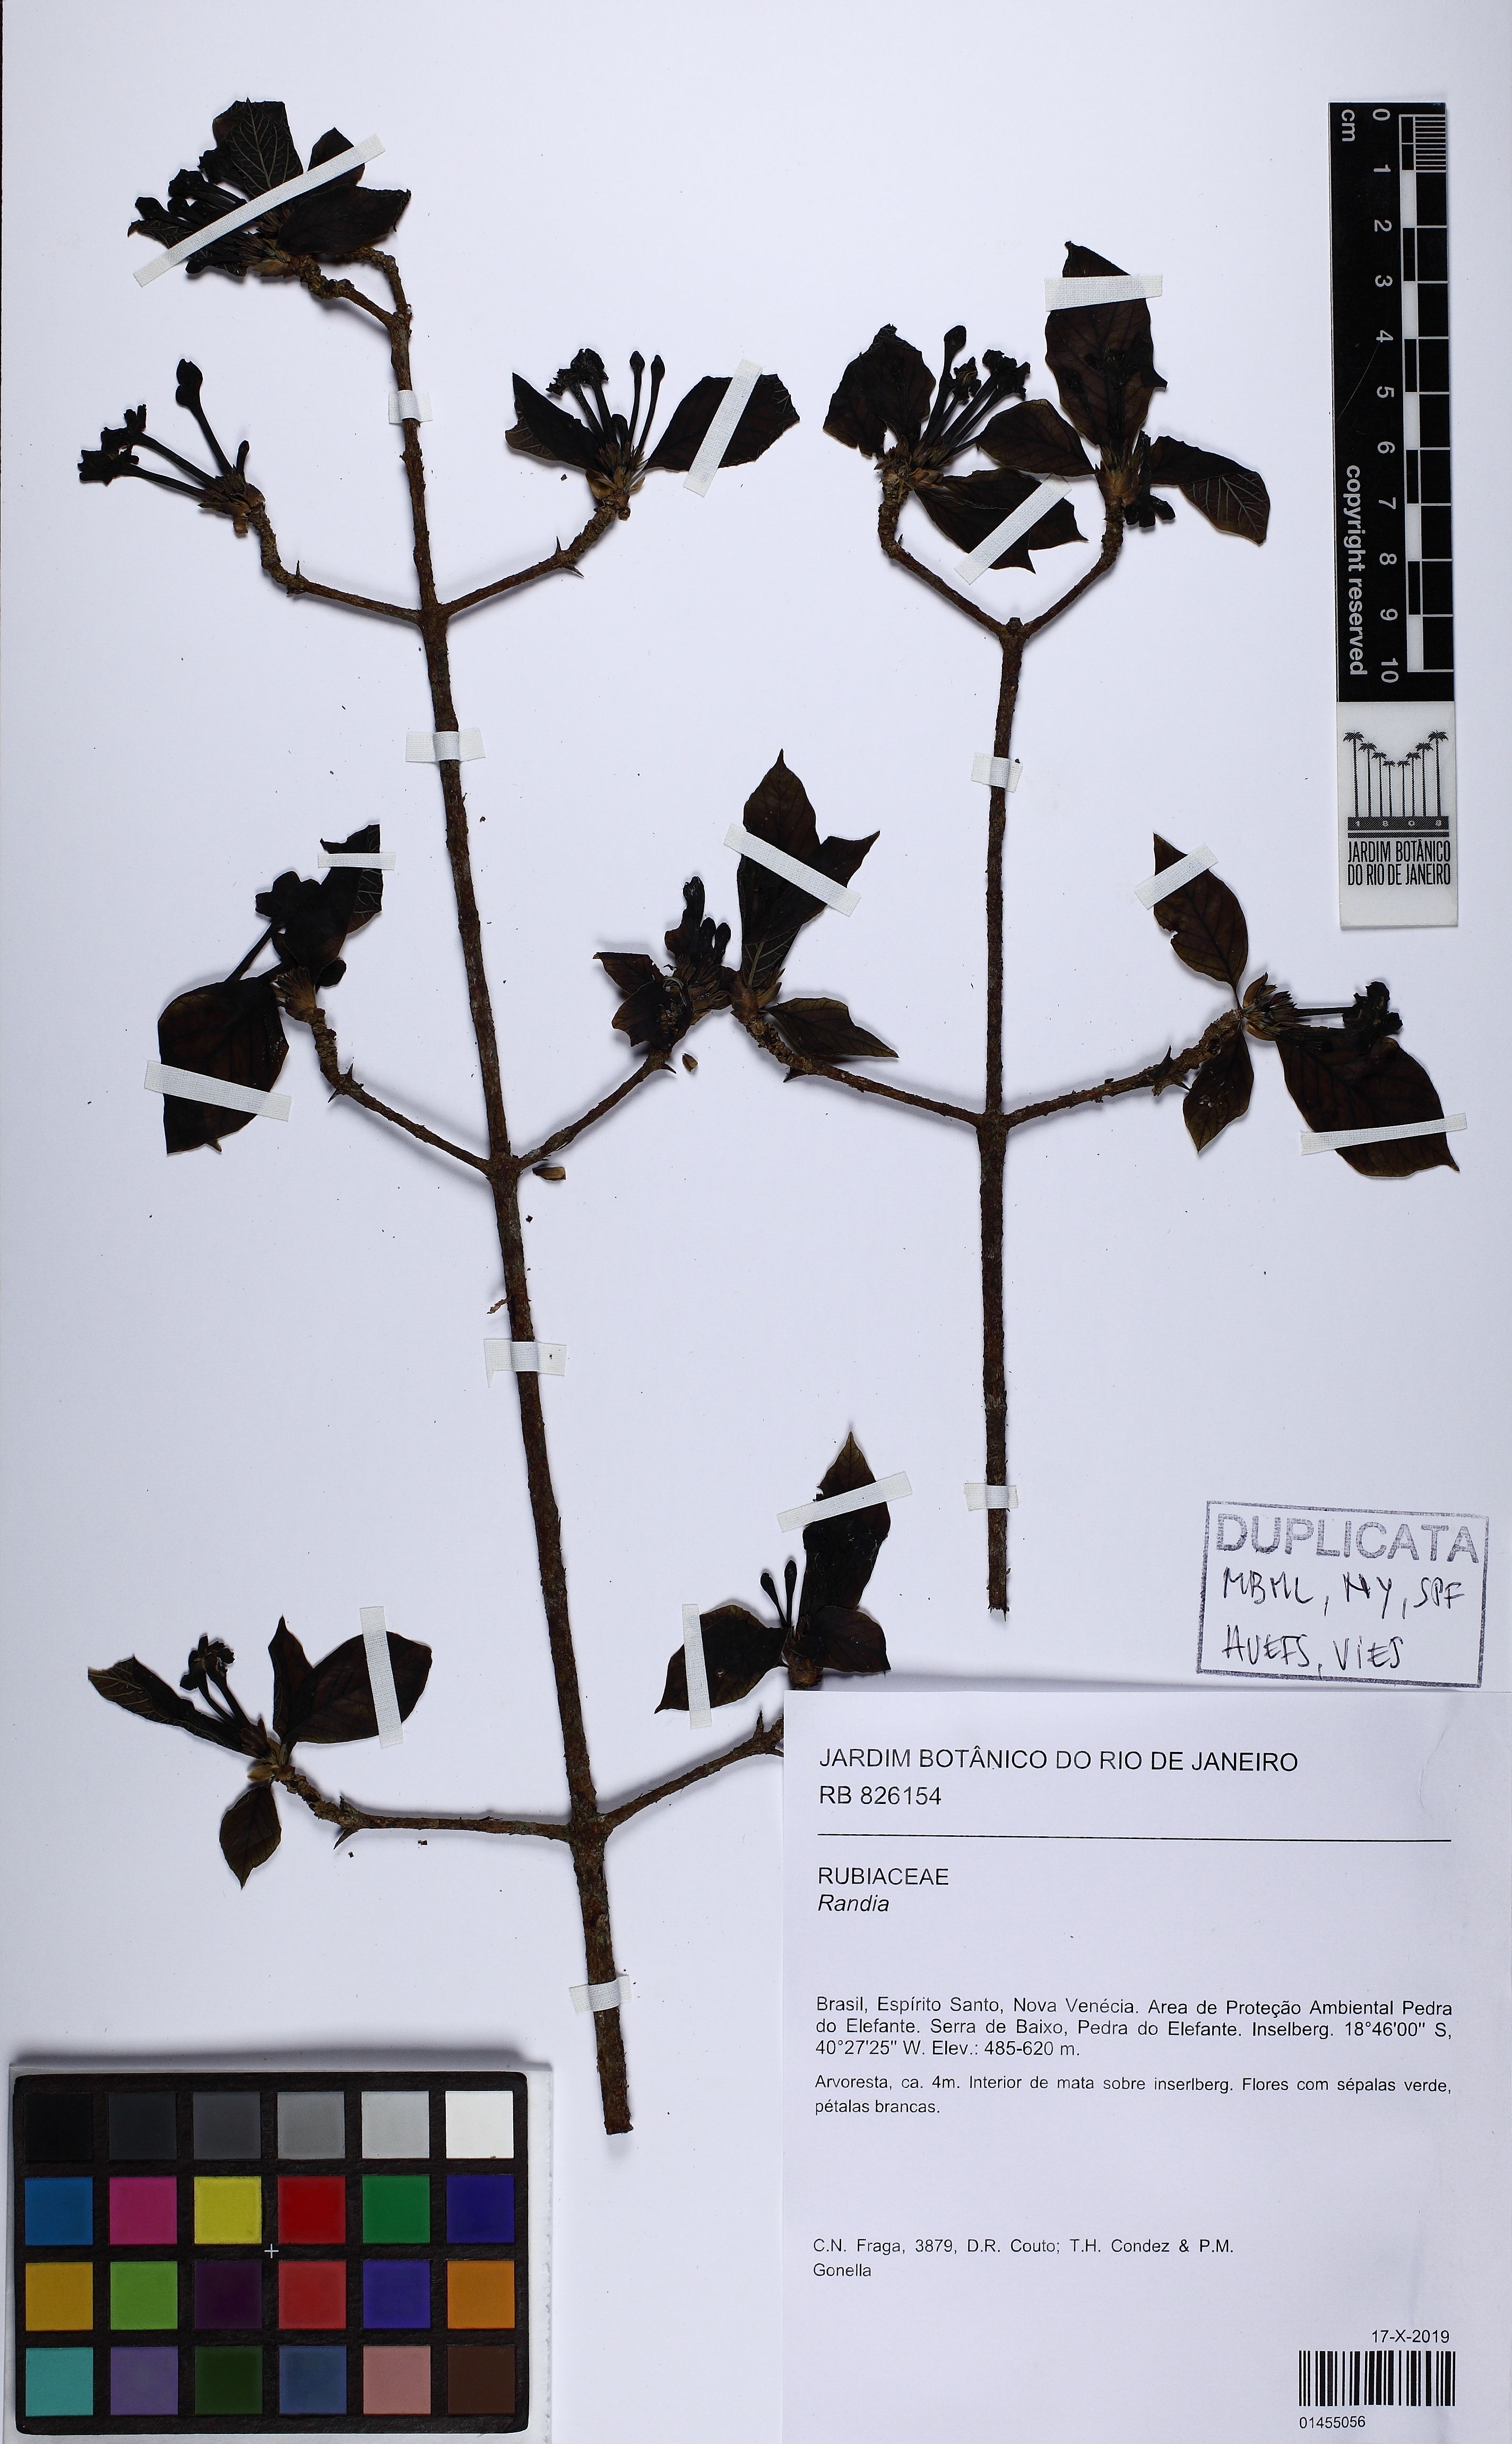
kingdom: Plantae
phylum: Tracheophyta
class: Magnoliopsida
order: Gentianales
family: Rubiaceae
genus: Randia
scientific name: Randia
